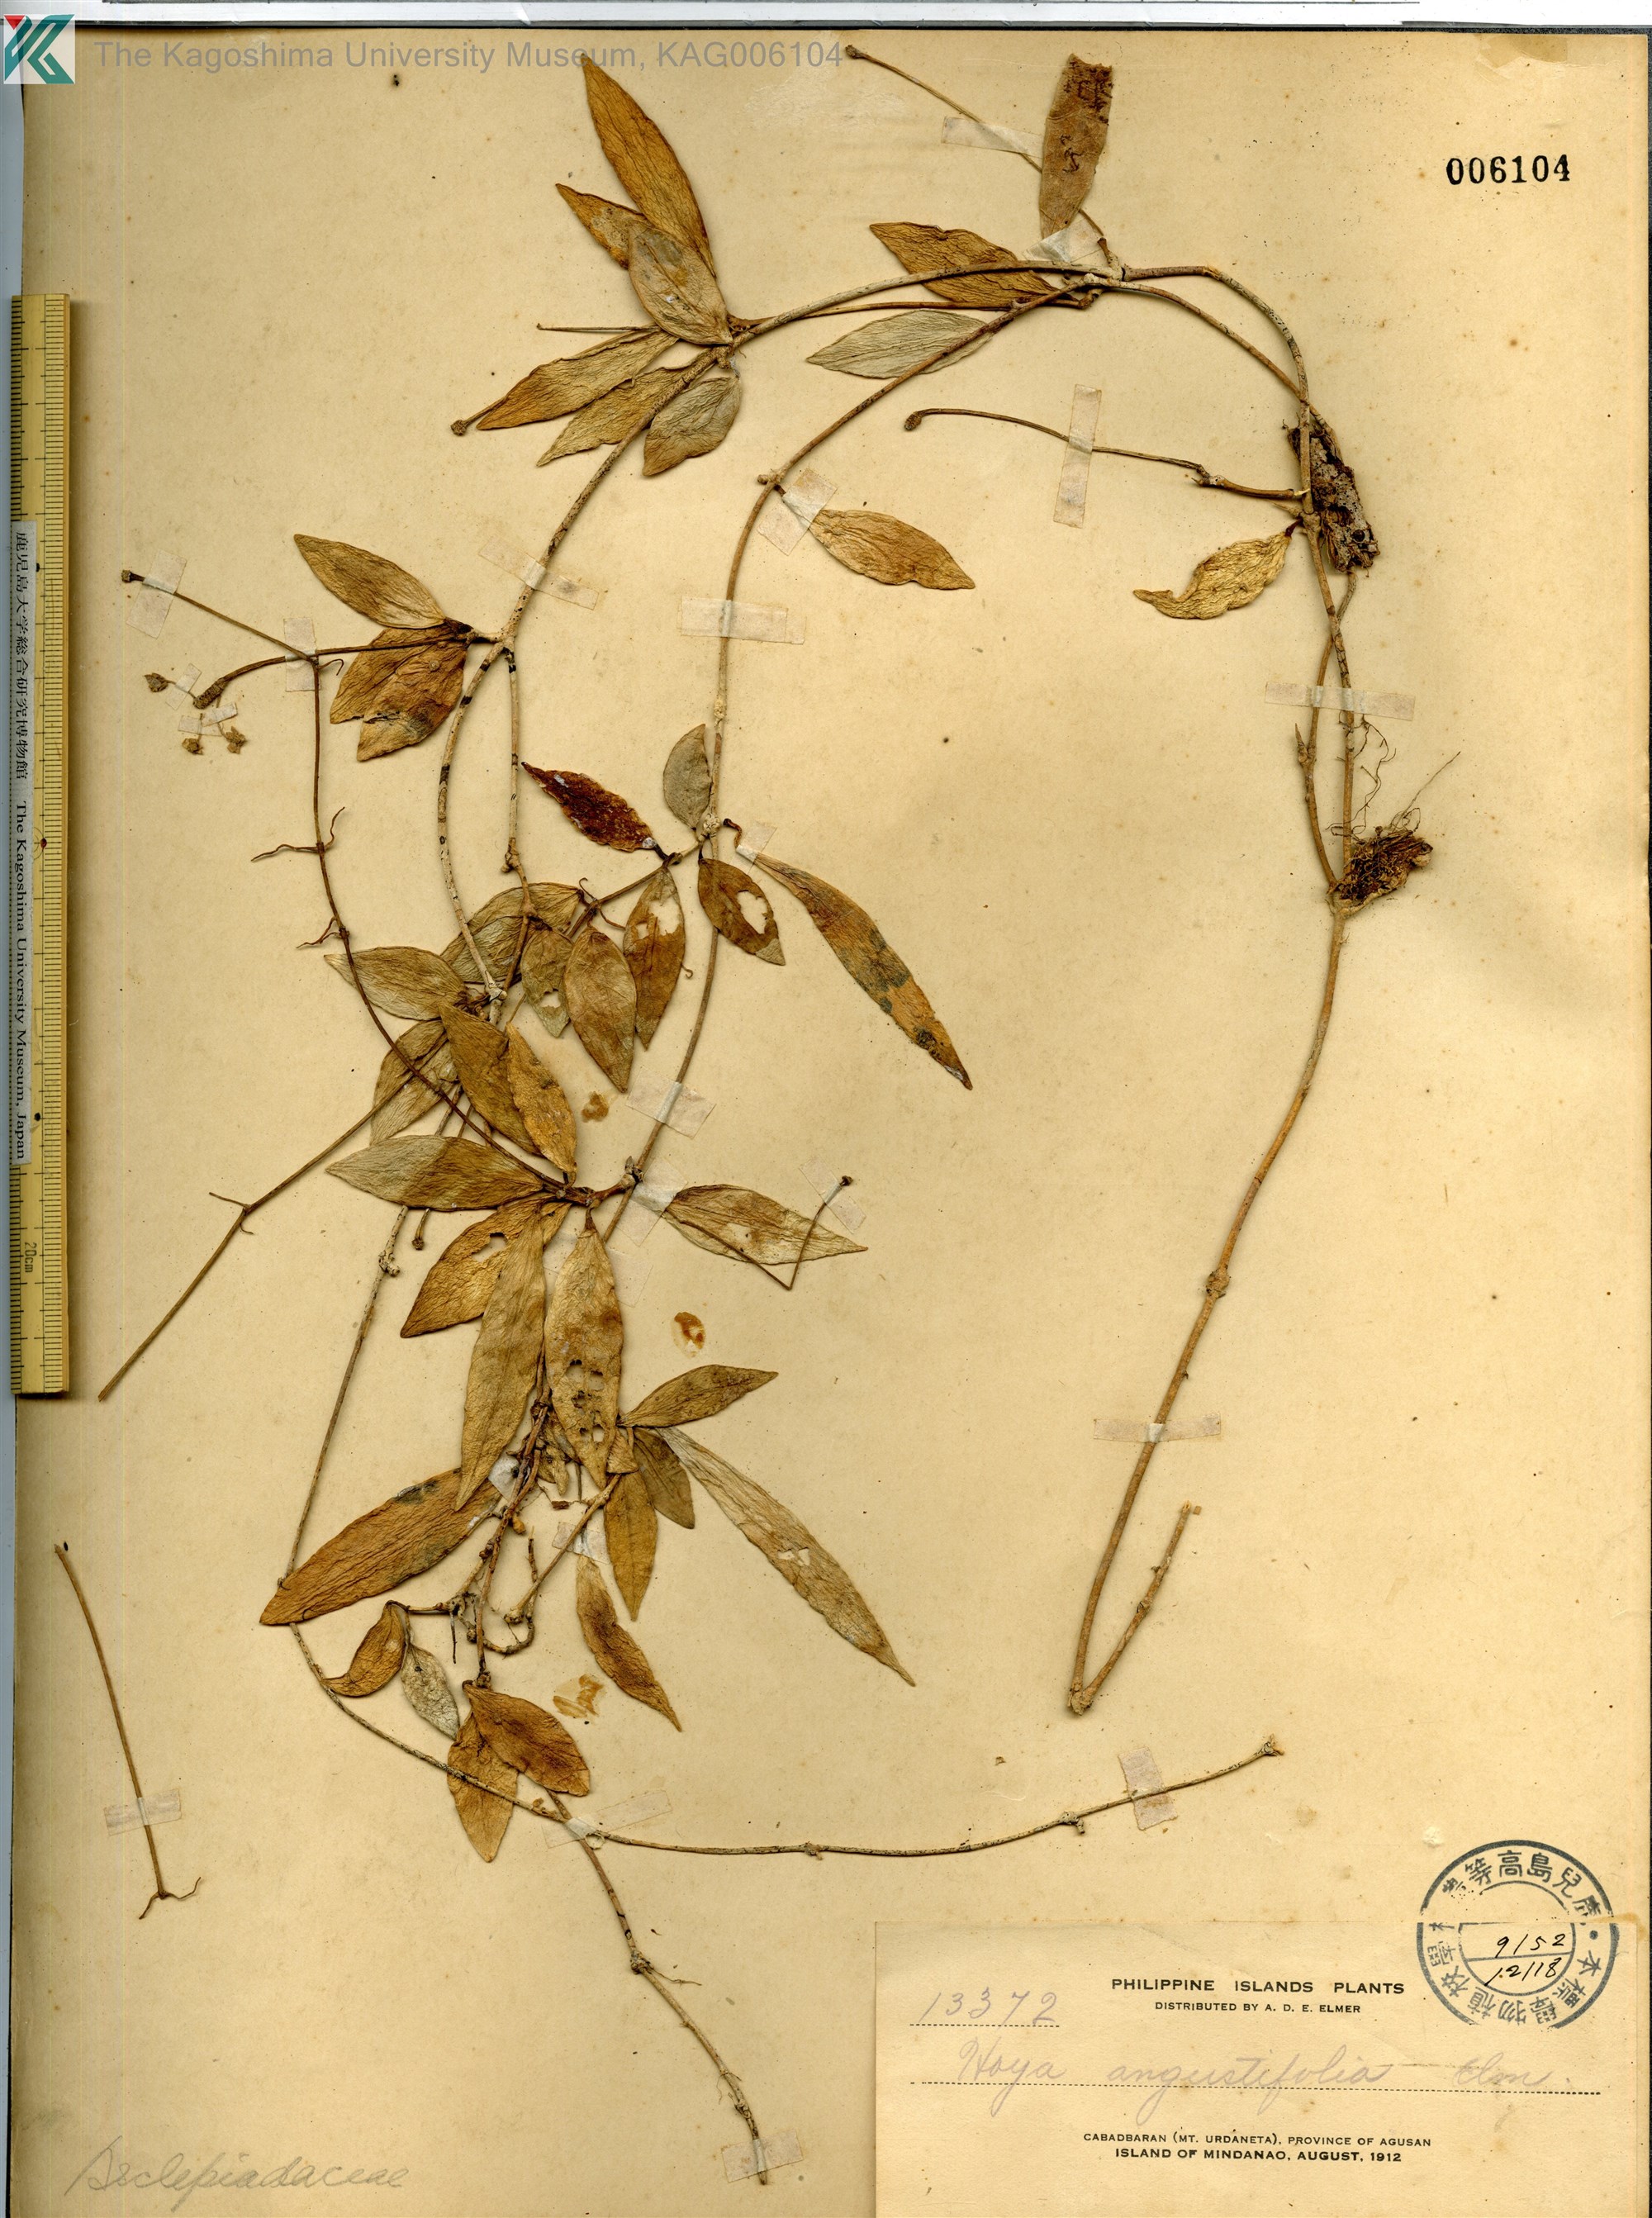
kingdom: Plantae
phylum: Tracheophyta
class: Magnoliopsida
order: Gentianales
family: Apocynaceae
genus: Hoya
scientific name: Hoya
